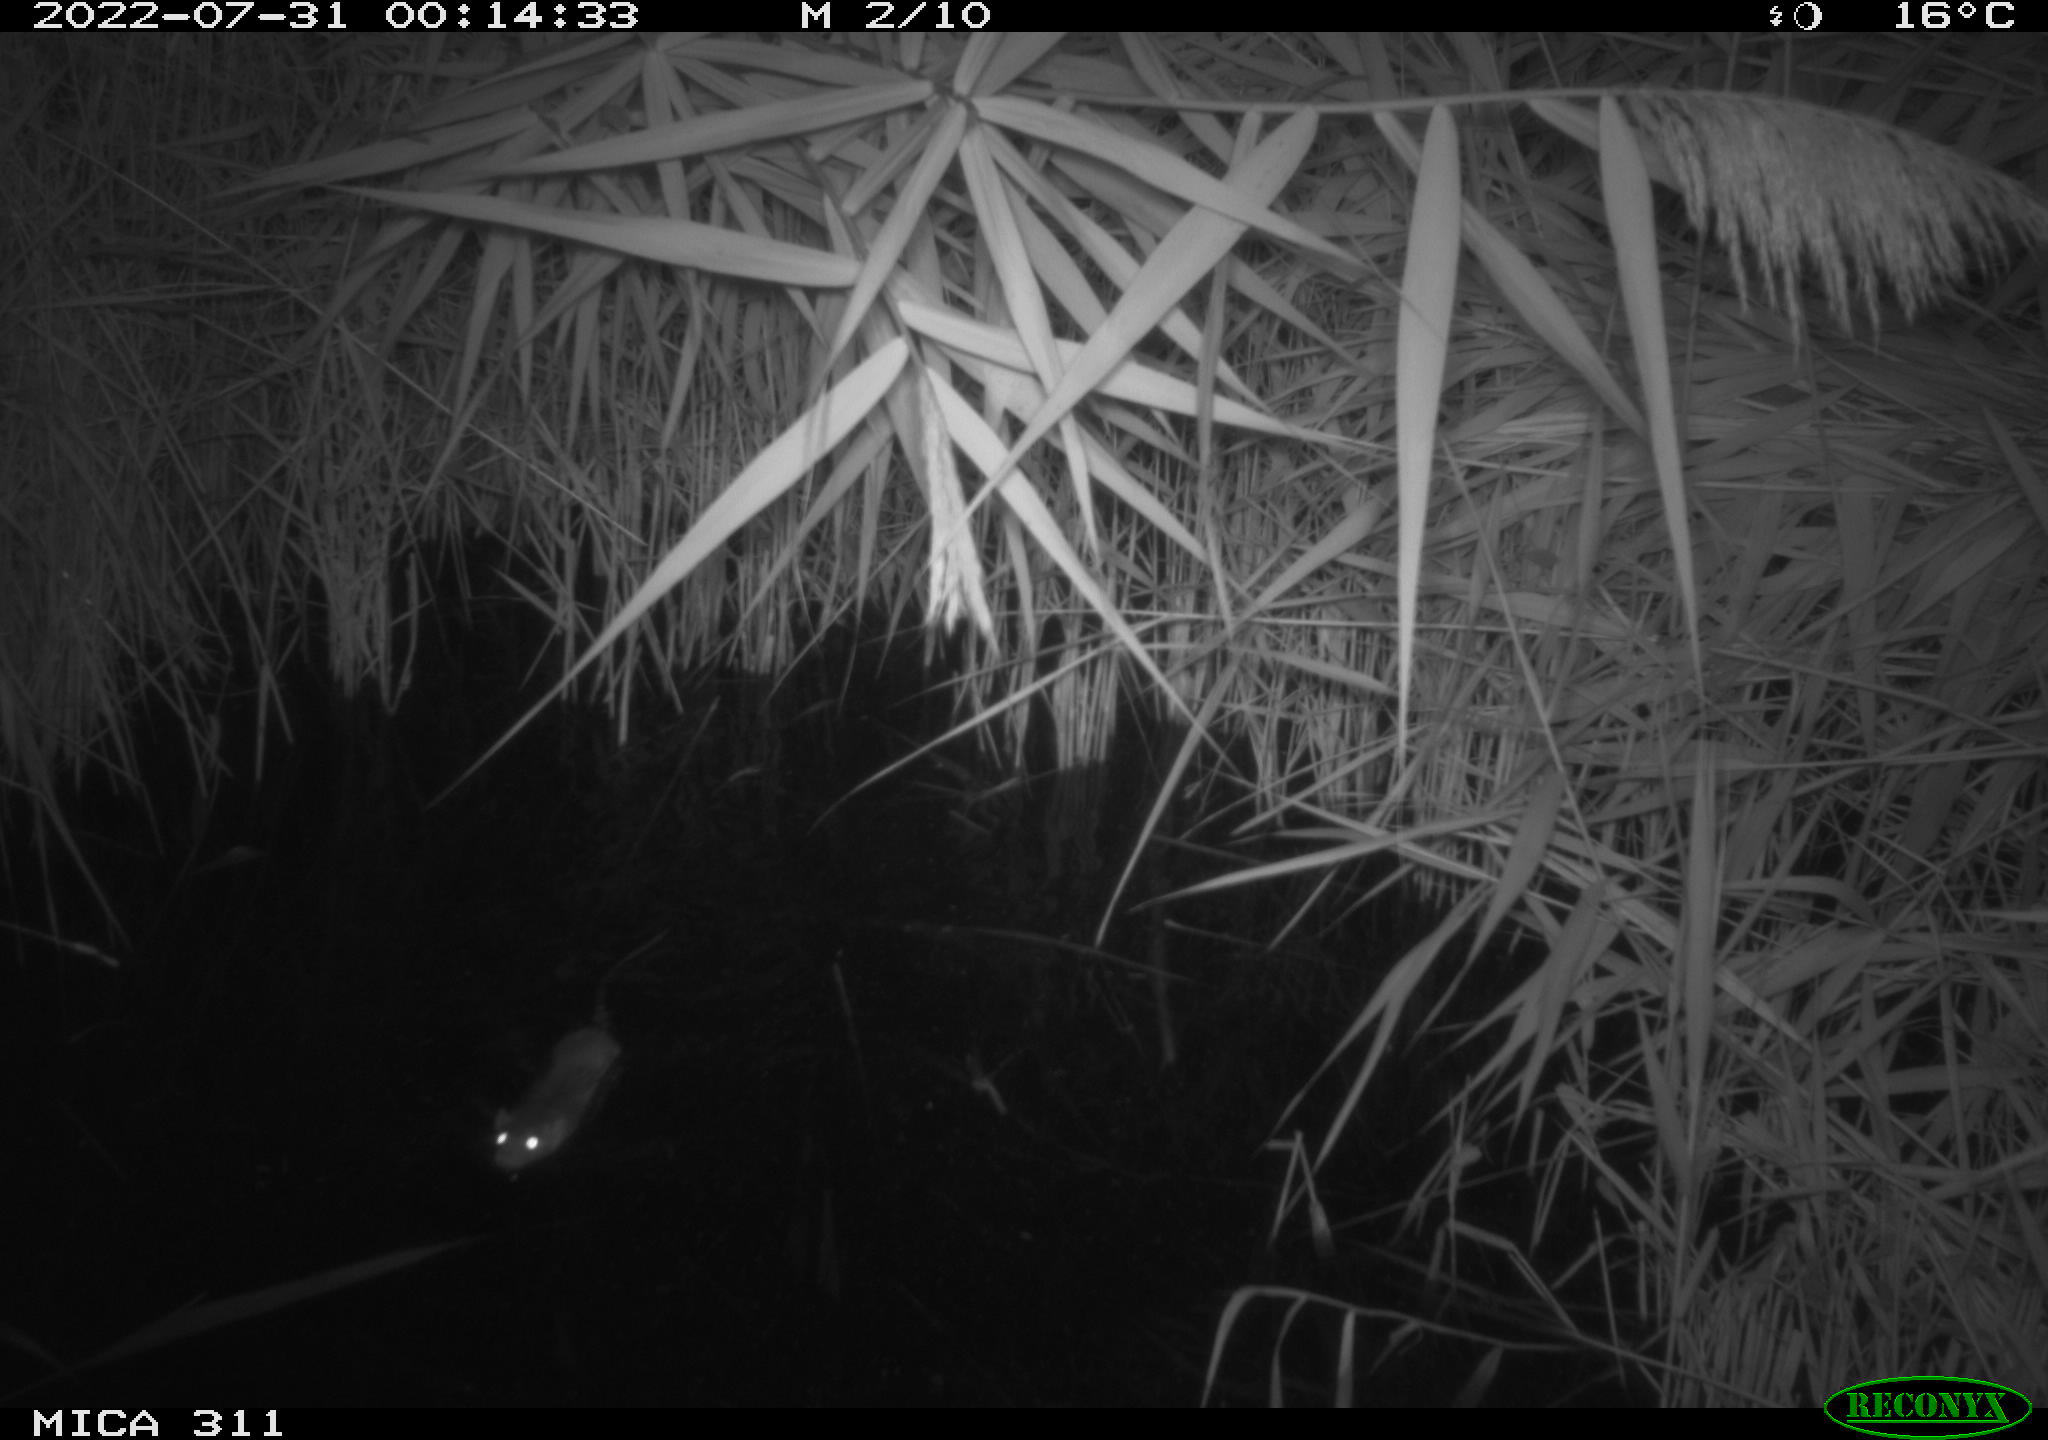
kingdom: Animalia
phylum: Chordata
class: Mammalia
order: Rodentia
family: Muridae
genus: Rattus
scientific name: Rattus norvegicus
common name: Brown rat
